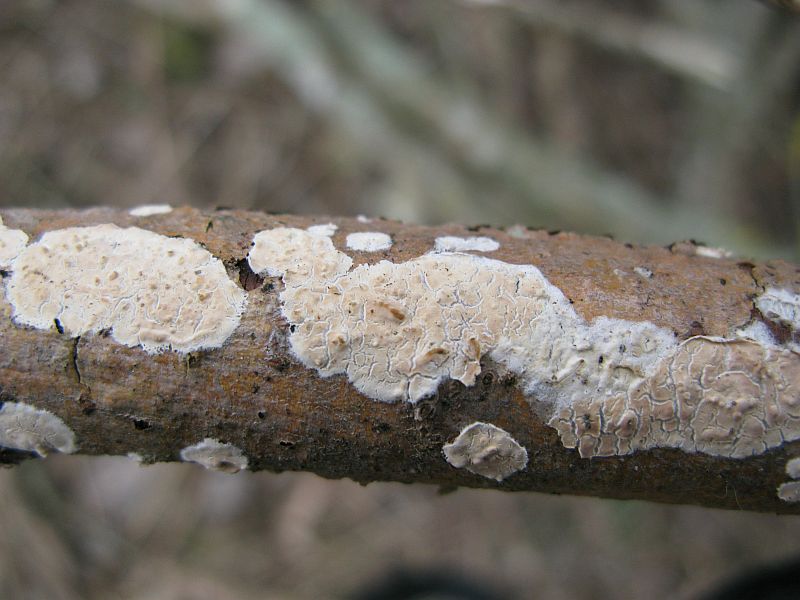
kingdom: Fungi
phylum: Basidiomycota
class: Agaricomycetes
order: Agaricales
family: Physalacriaceae
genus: Cylindrobasidium
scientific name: Cylindrobasidium evolvens
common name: sprækkehinde
